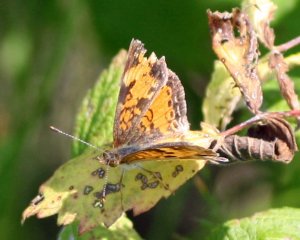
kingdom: Animalia
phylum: Arthropoda
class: Insecta
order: Lepidoptera
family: Nymphalidae
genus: Phyciodes
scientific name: Phyciodes tharos
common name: Northern Crescent
